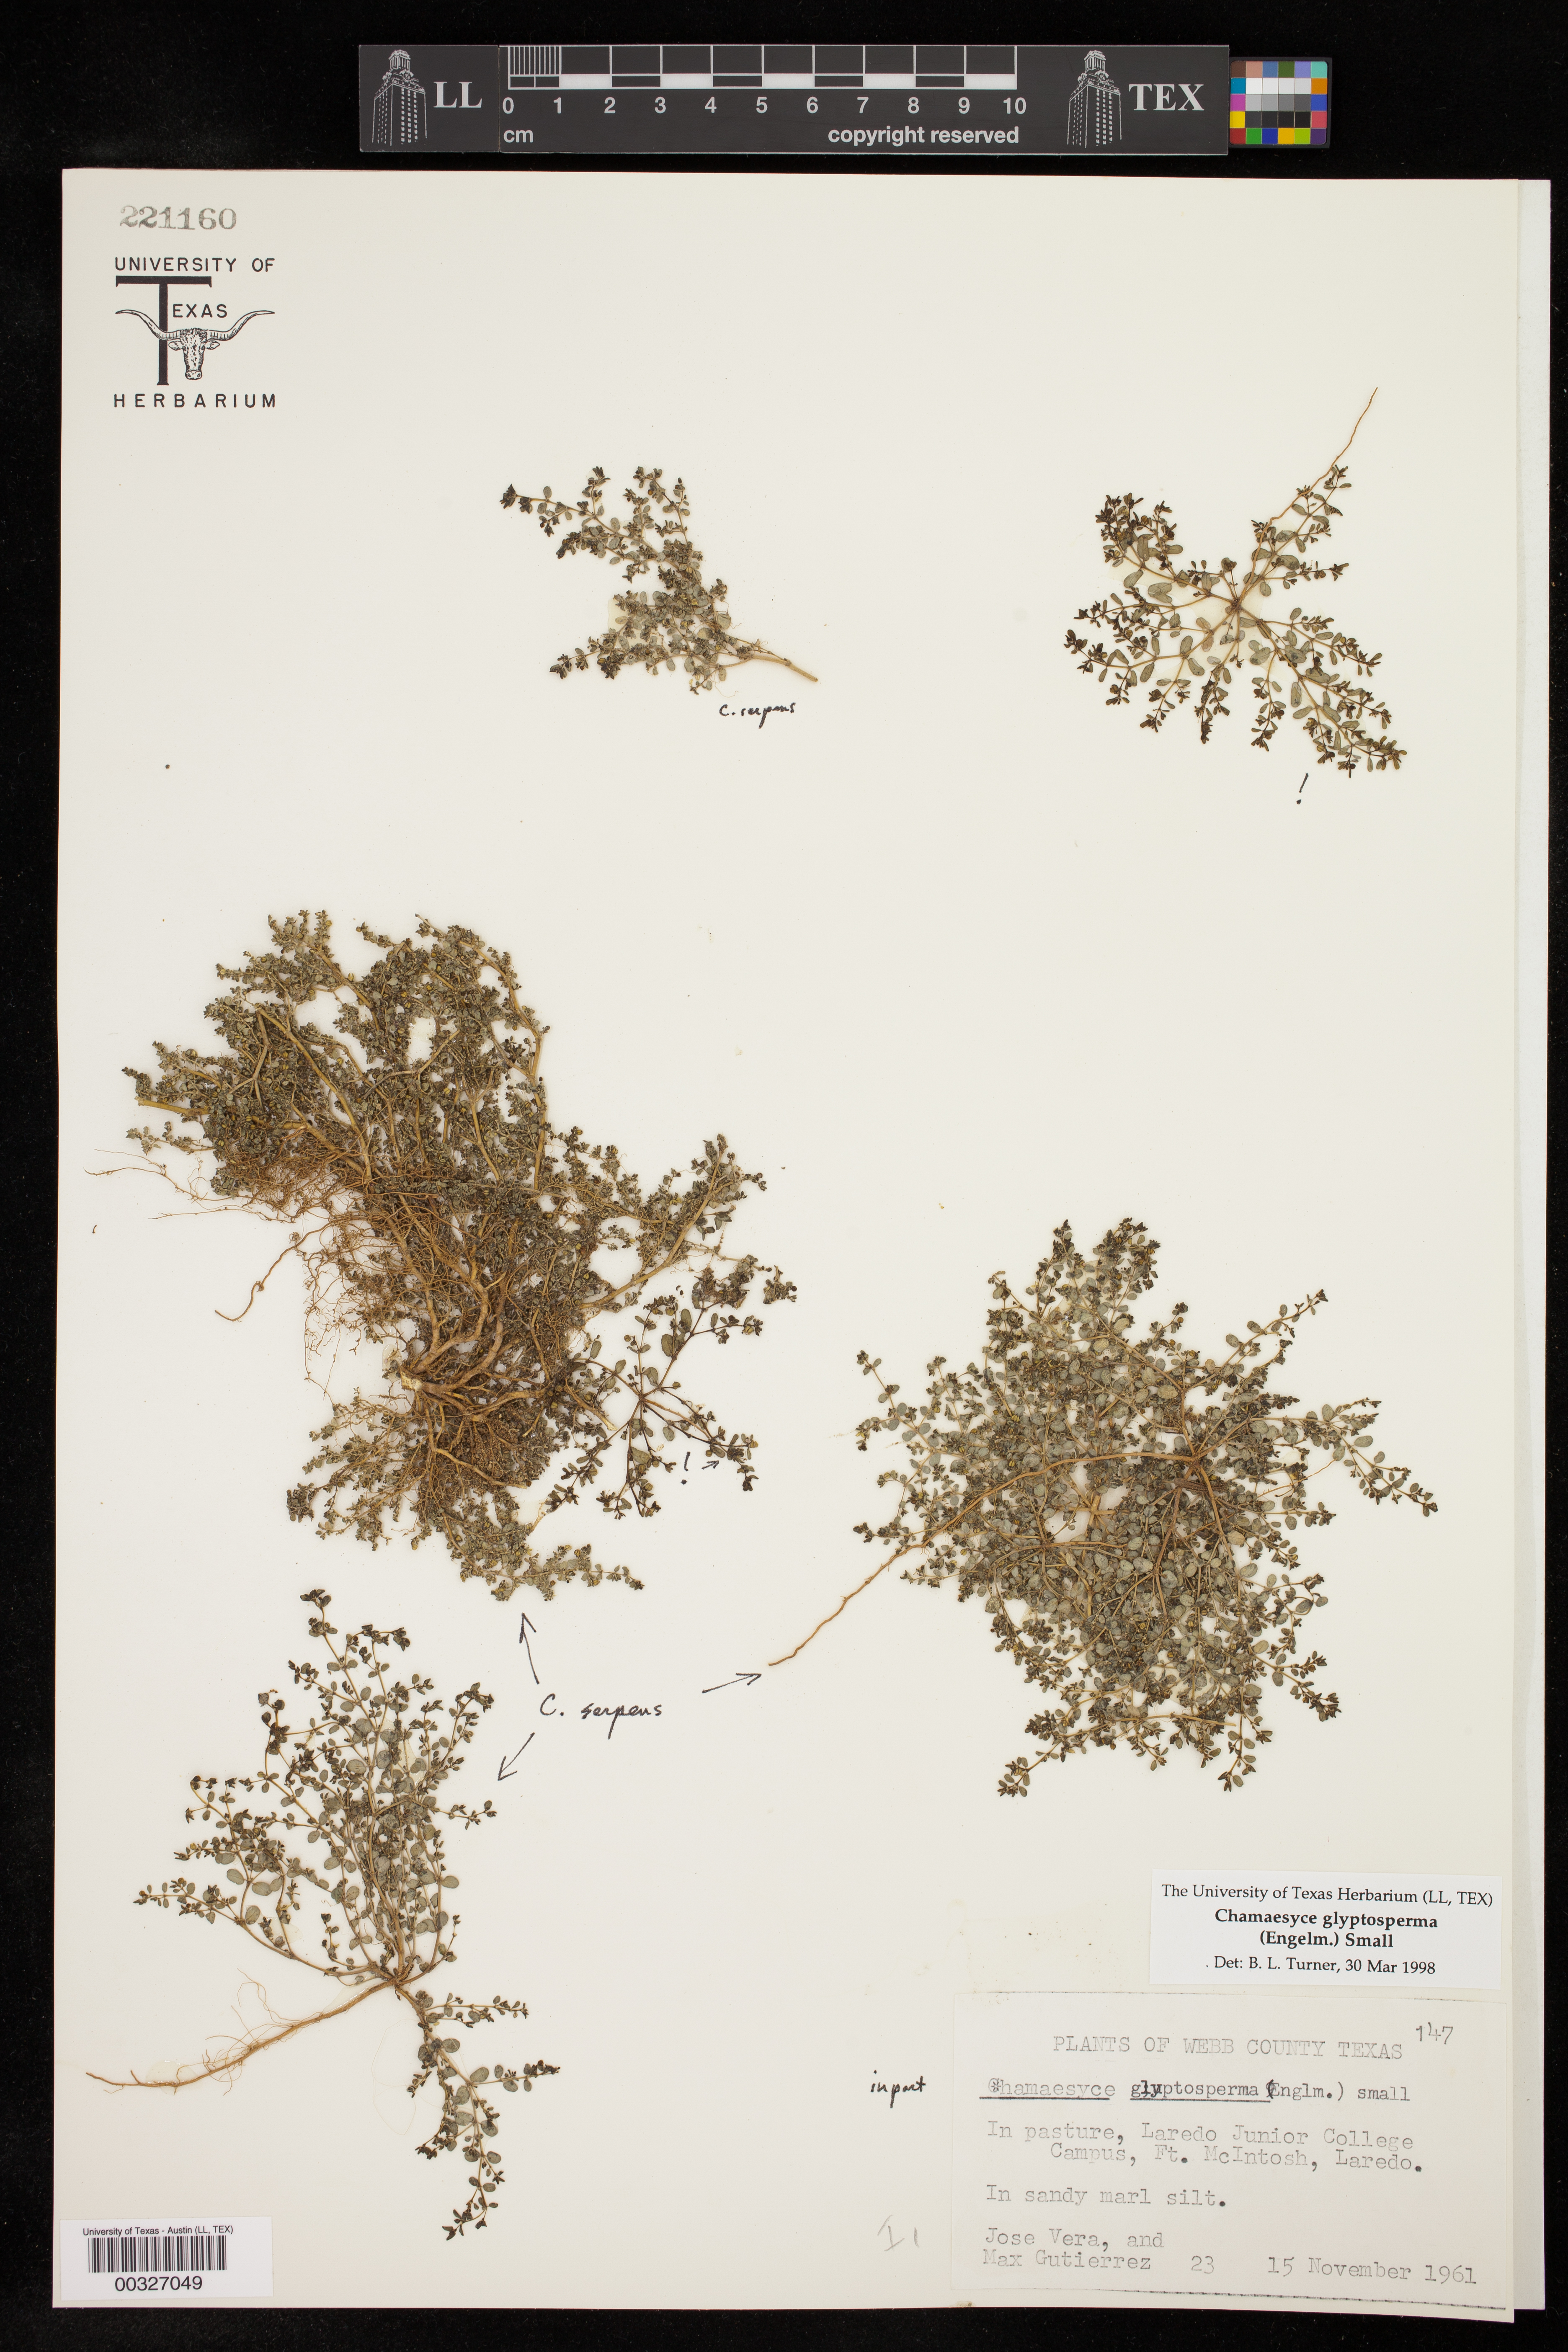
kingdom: Plantae
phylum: Tracheophyta
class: Magnoliopsida
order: Malpighiales
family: Euphorbiaceae
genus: Euphorbia
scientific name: Euphorbia glyptosperma
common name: Corrugate-seeded spurge
